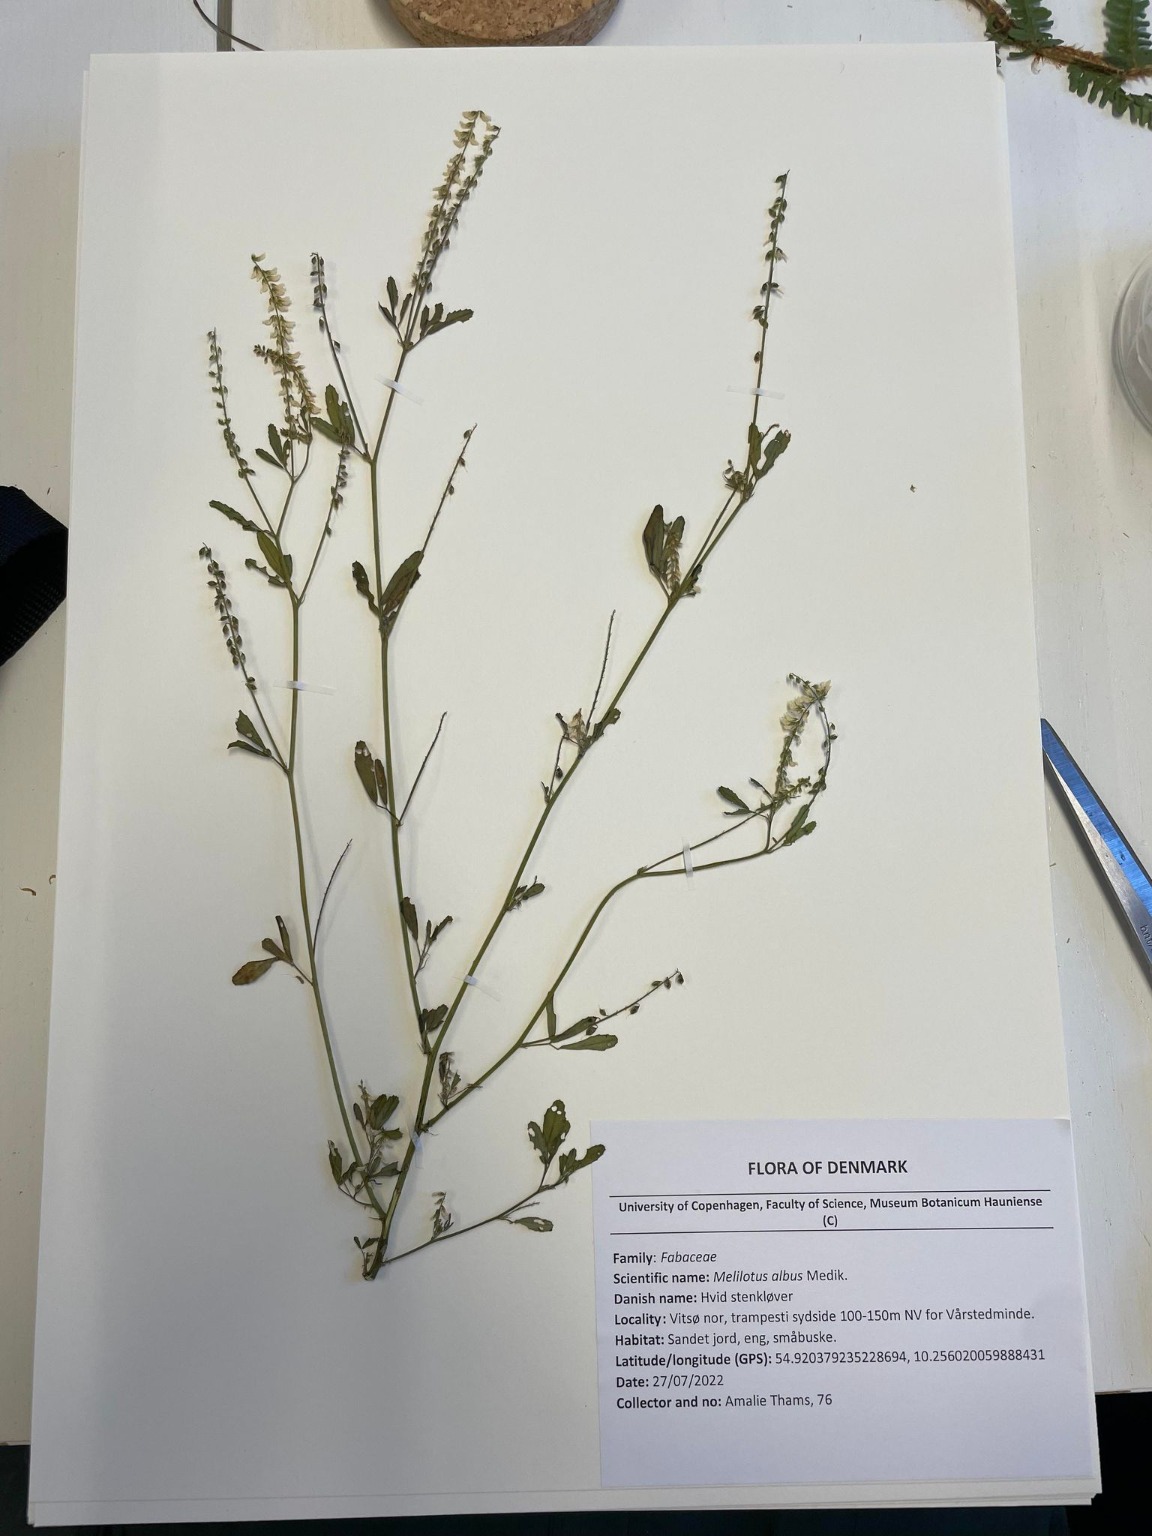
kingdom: Plantae
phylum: Tracheophyta
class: Magnoliopsida
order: Fabales
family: Fabaceae
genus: Melilotus
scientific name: Melilotus albus
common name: Hvid stenkløver
